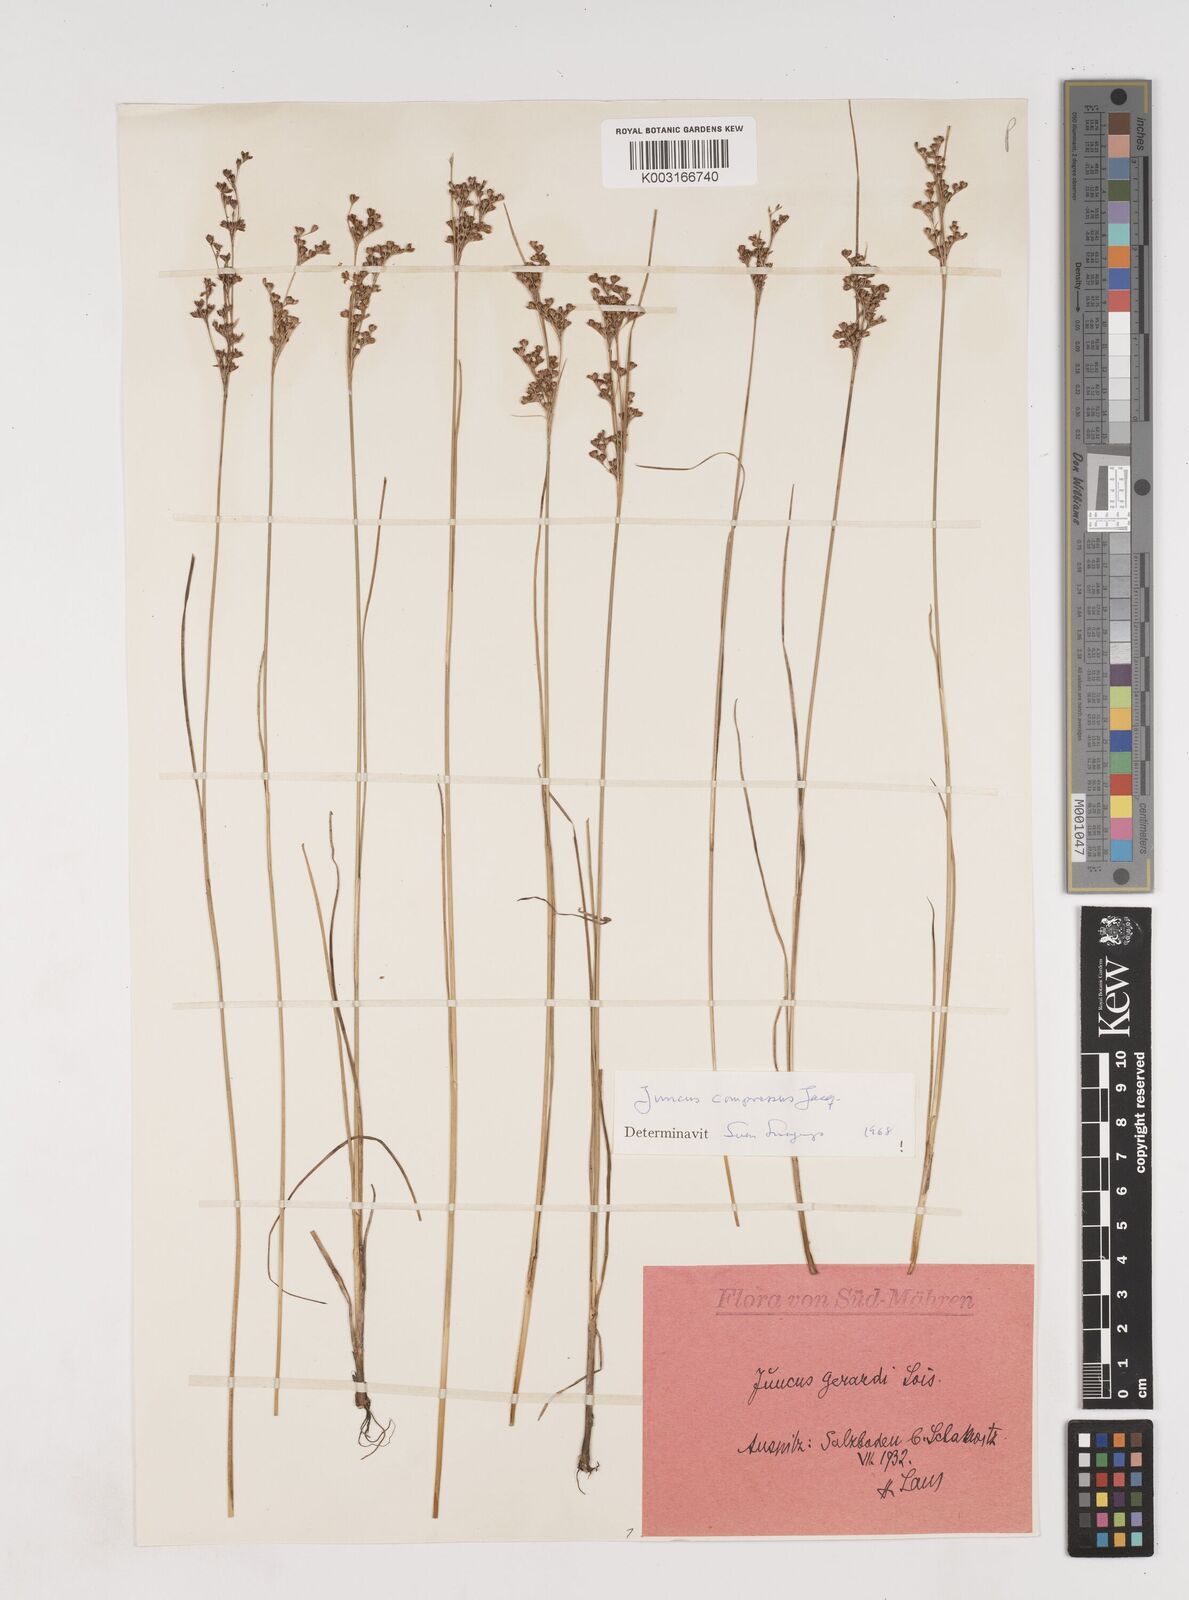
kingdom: Plantae
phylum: Tracheophyta
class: Liliopsida
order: Poales
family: Juncaceae
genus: Juncus
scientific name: Juncus
